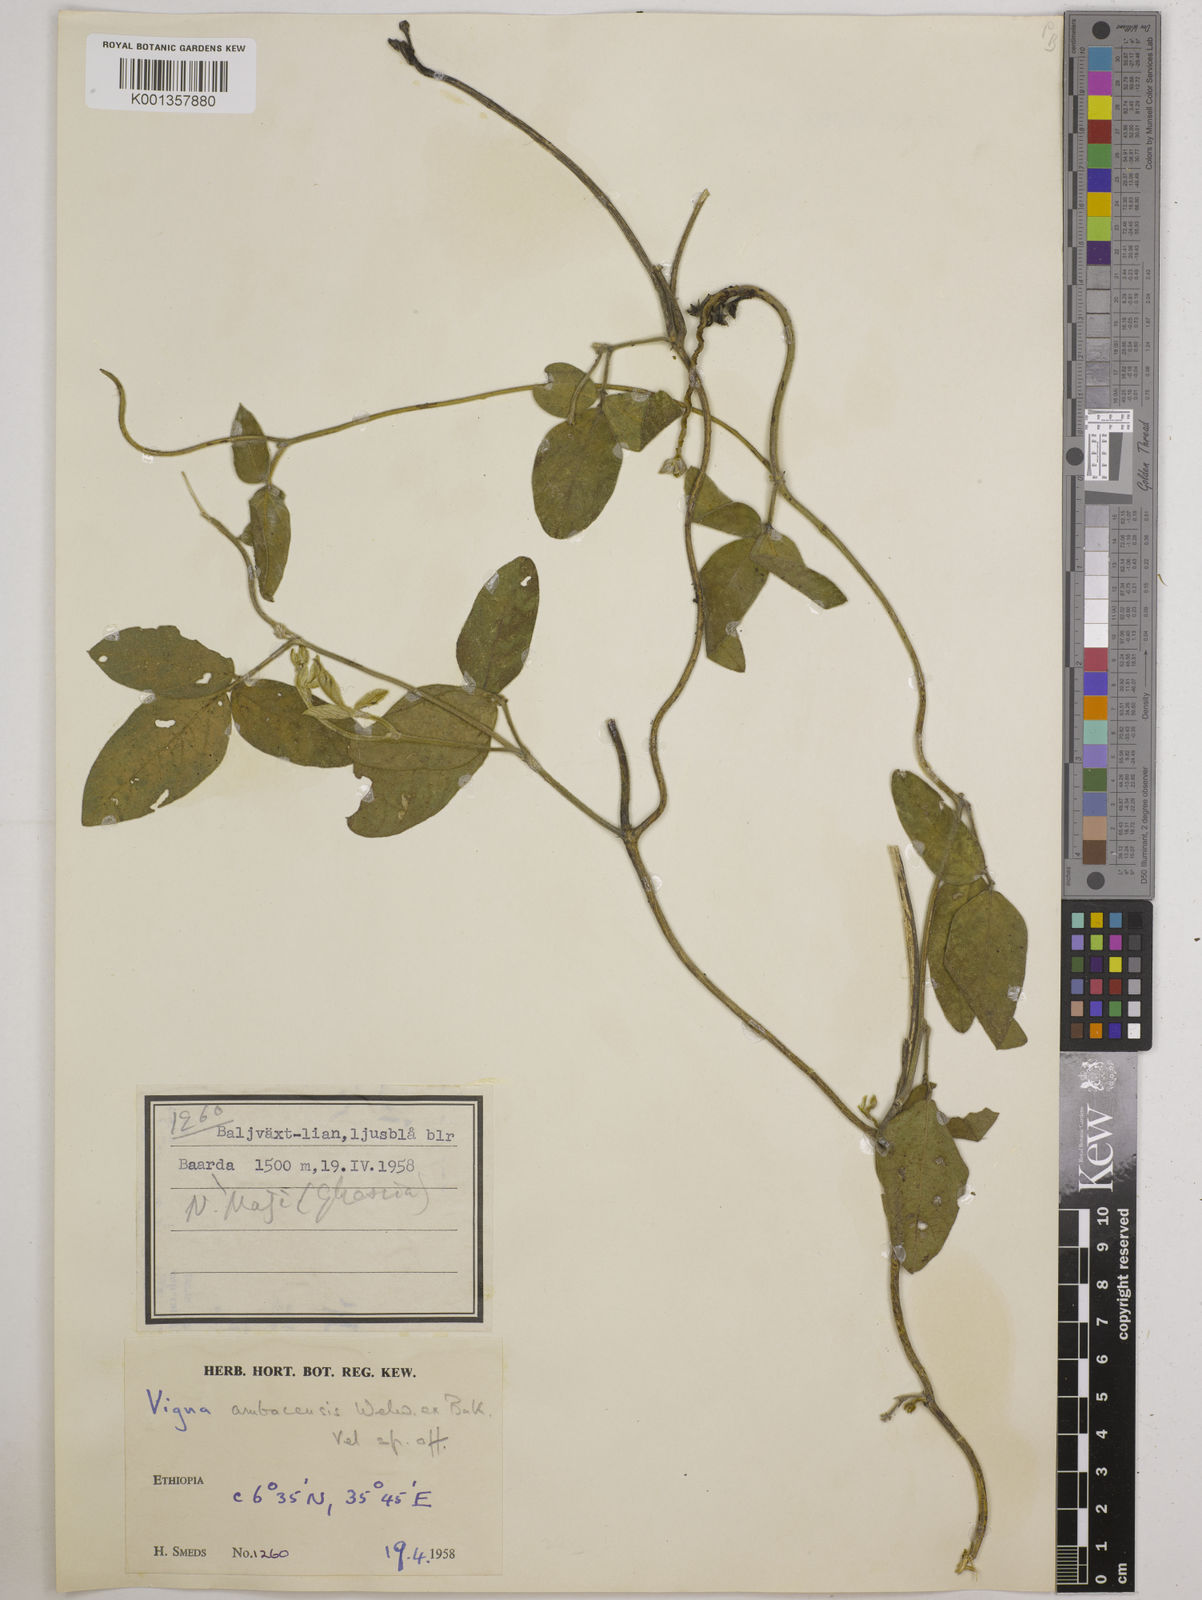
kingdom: Plantae
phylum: Tracheophyta
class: Magnoliopsida
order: Fabales
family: Fabaceae
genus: Vigna
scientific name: Vigna ambacensis
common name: Tsarkiyan zomo
